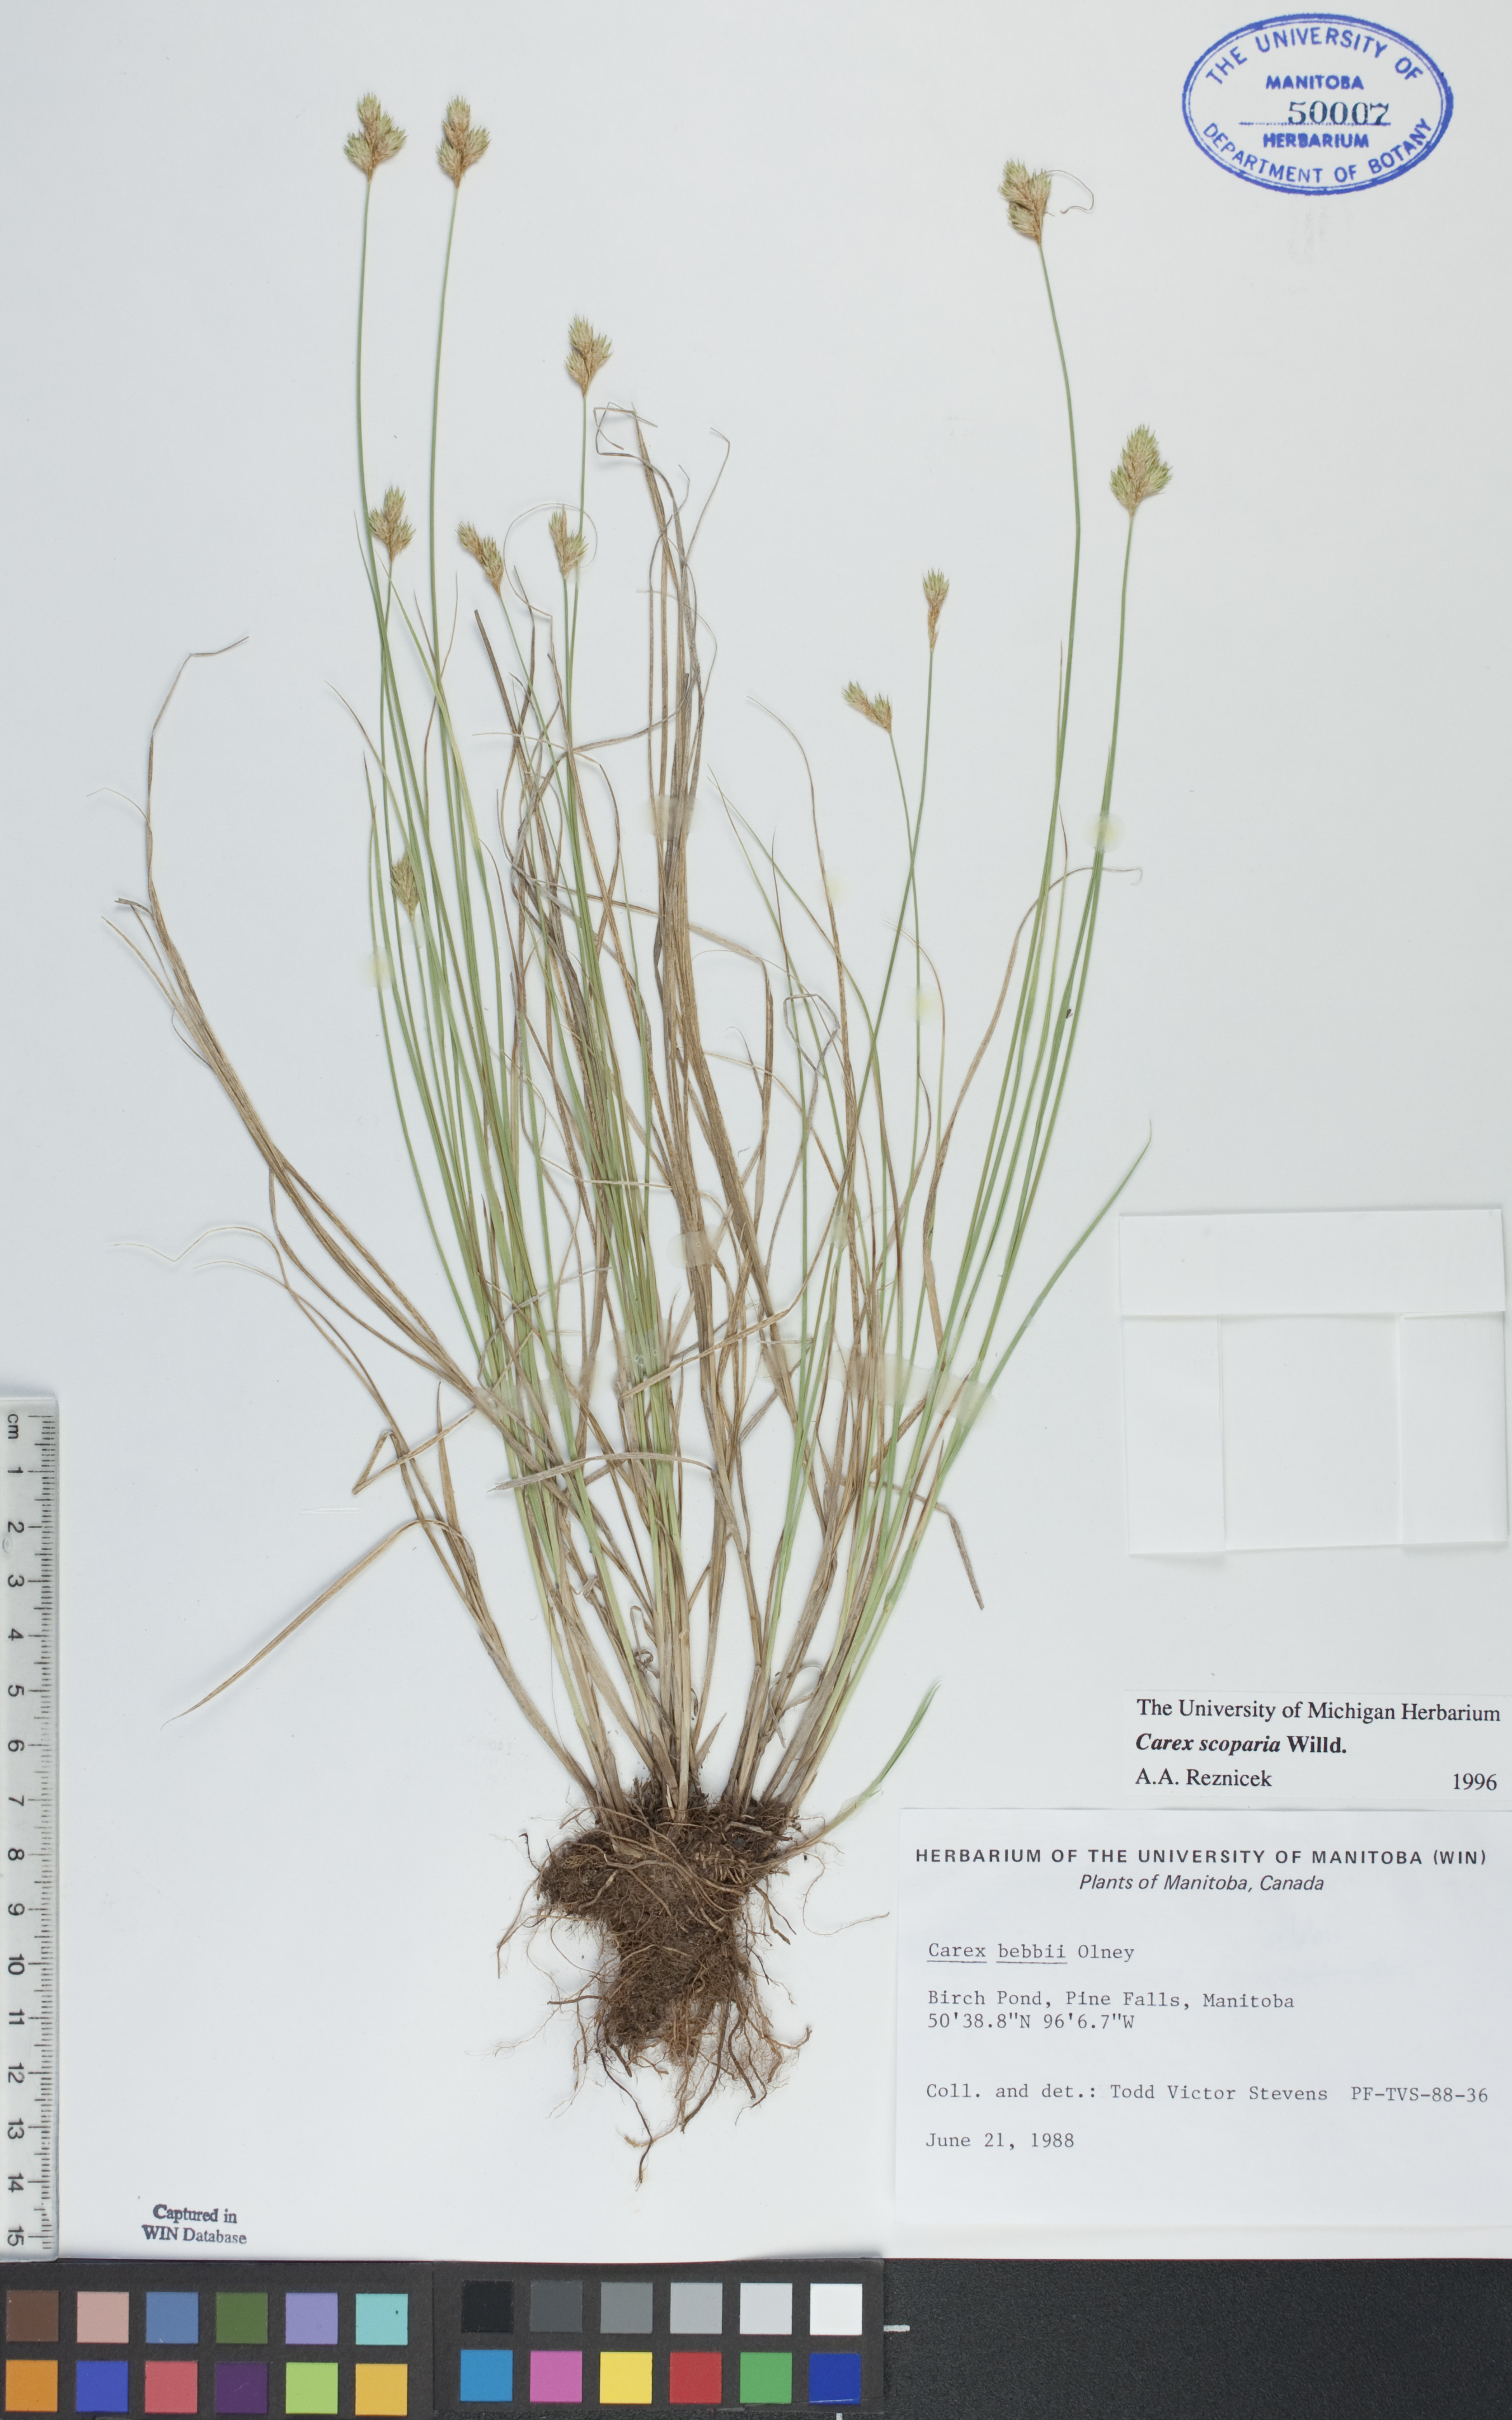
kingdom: Plantae
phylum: Tracheophyta
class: Liliopsida
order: Poales
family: Cyperaceae
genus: Carex
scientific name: Carex scoparia
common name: Broom sedge
